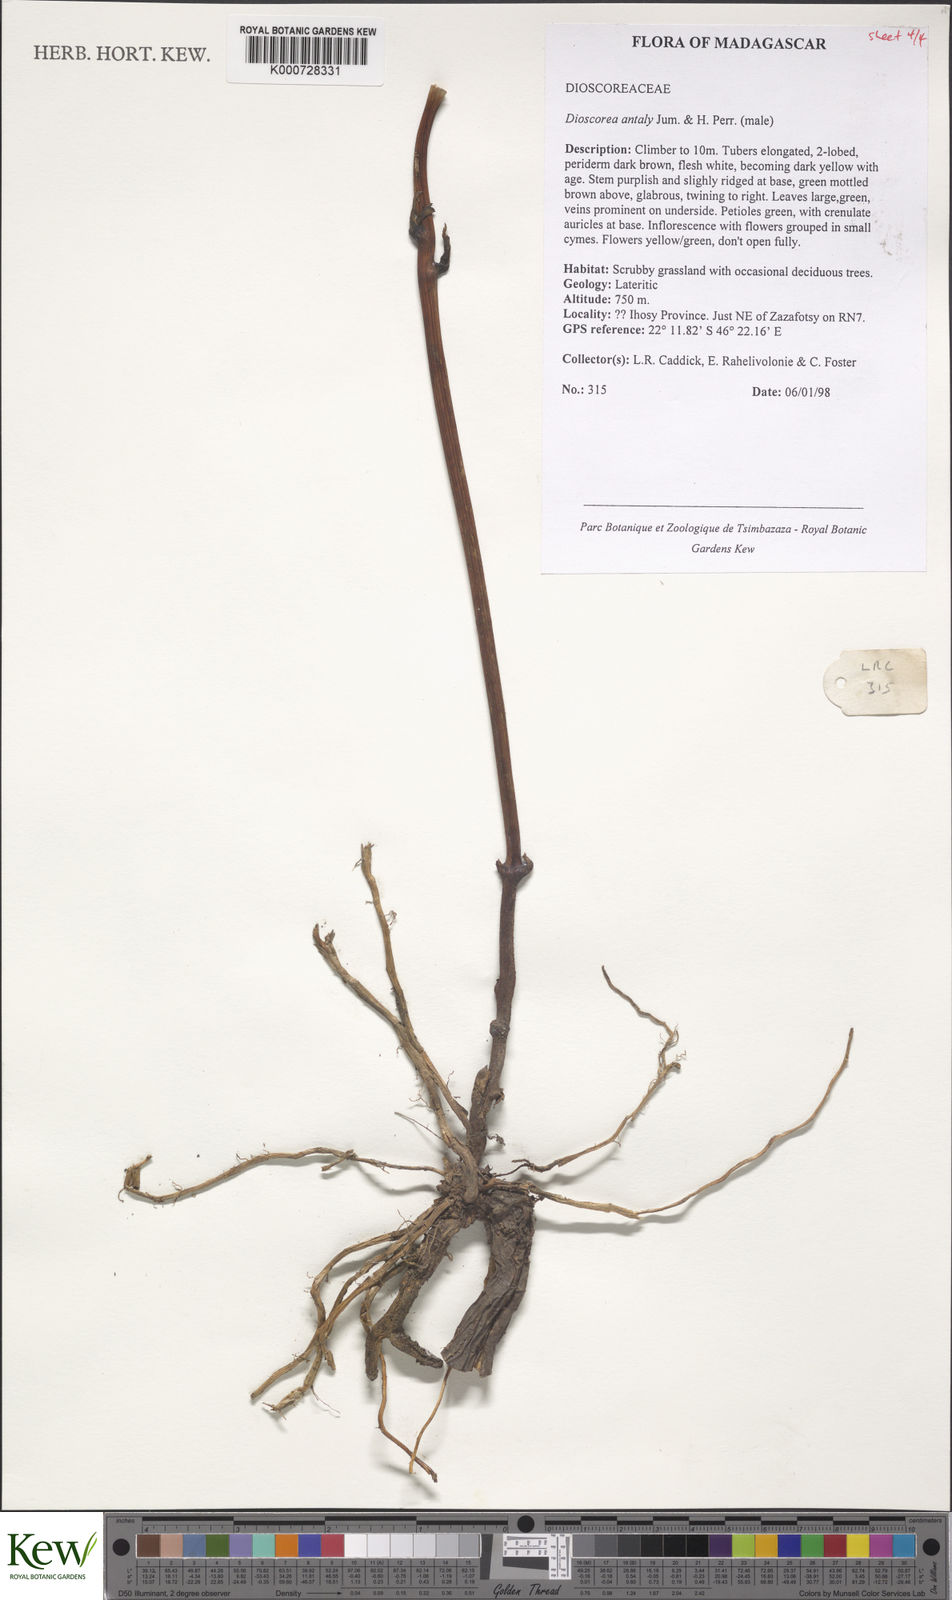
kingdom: Plantae
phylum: Tracheophyta
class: Liliopsida
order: Dioscoreales
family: Dioscoreaceae
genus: Dioscorea
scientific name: Dioscorea antaly
